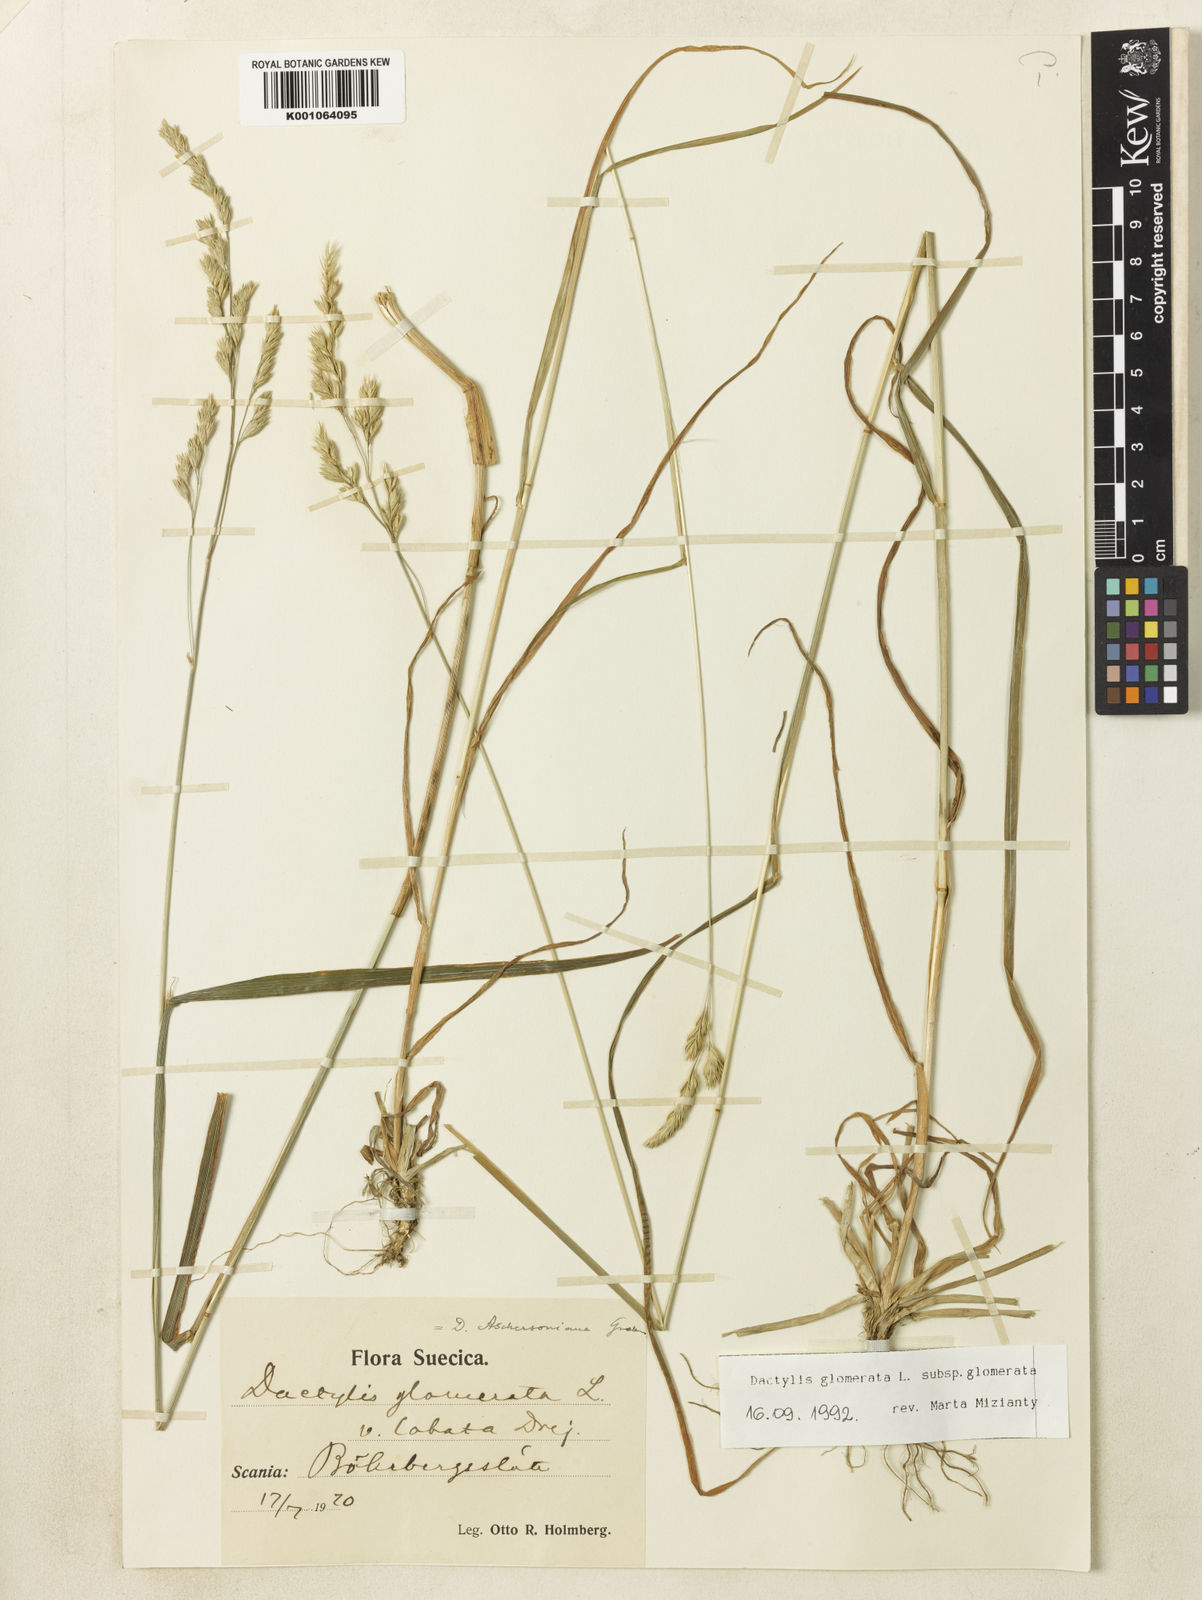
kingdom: Plantae
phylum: Tracheophyta
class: Liliopsida
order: Poales
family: Poaceae
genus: Dactylis
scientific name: Dactylis glomerata
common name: Orchardgrass
